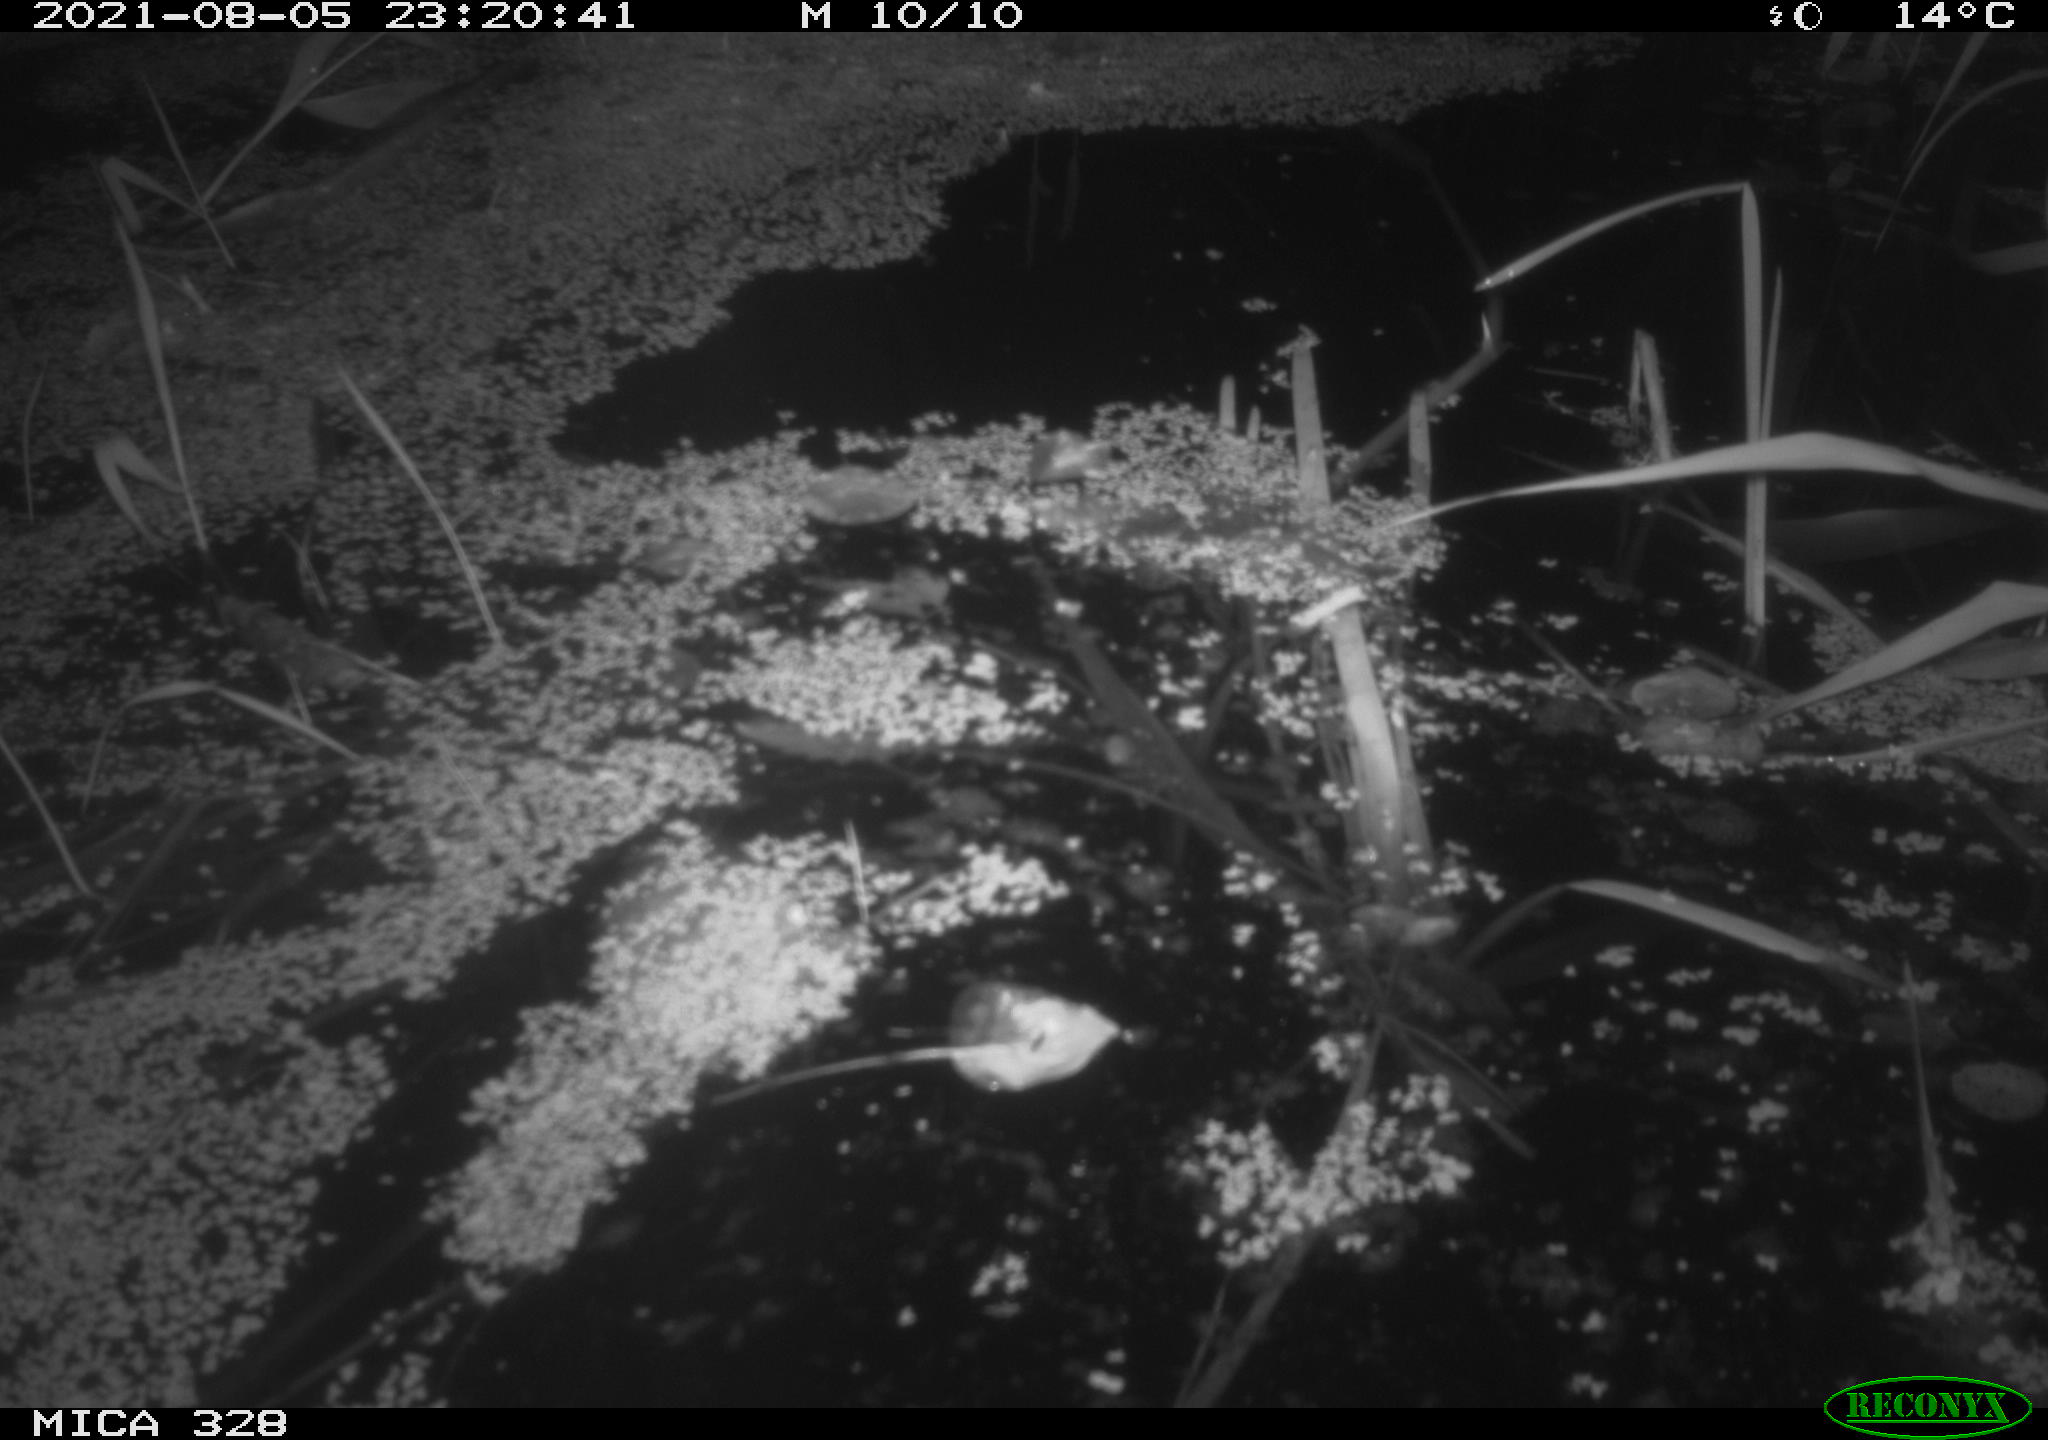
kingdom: Animalia
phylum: Chordata
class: Mammalia
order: Rodentia
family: Cricetidae
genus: Ondatra
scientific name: Ondatra zibethicus
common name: Muskrat
